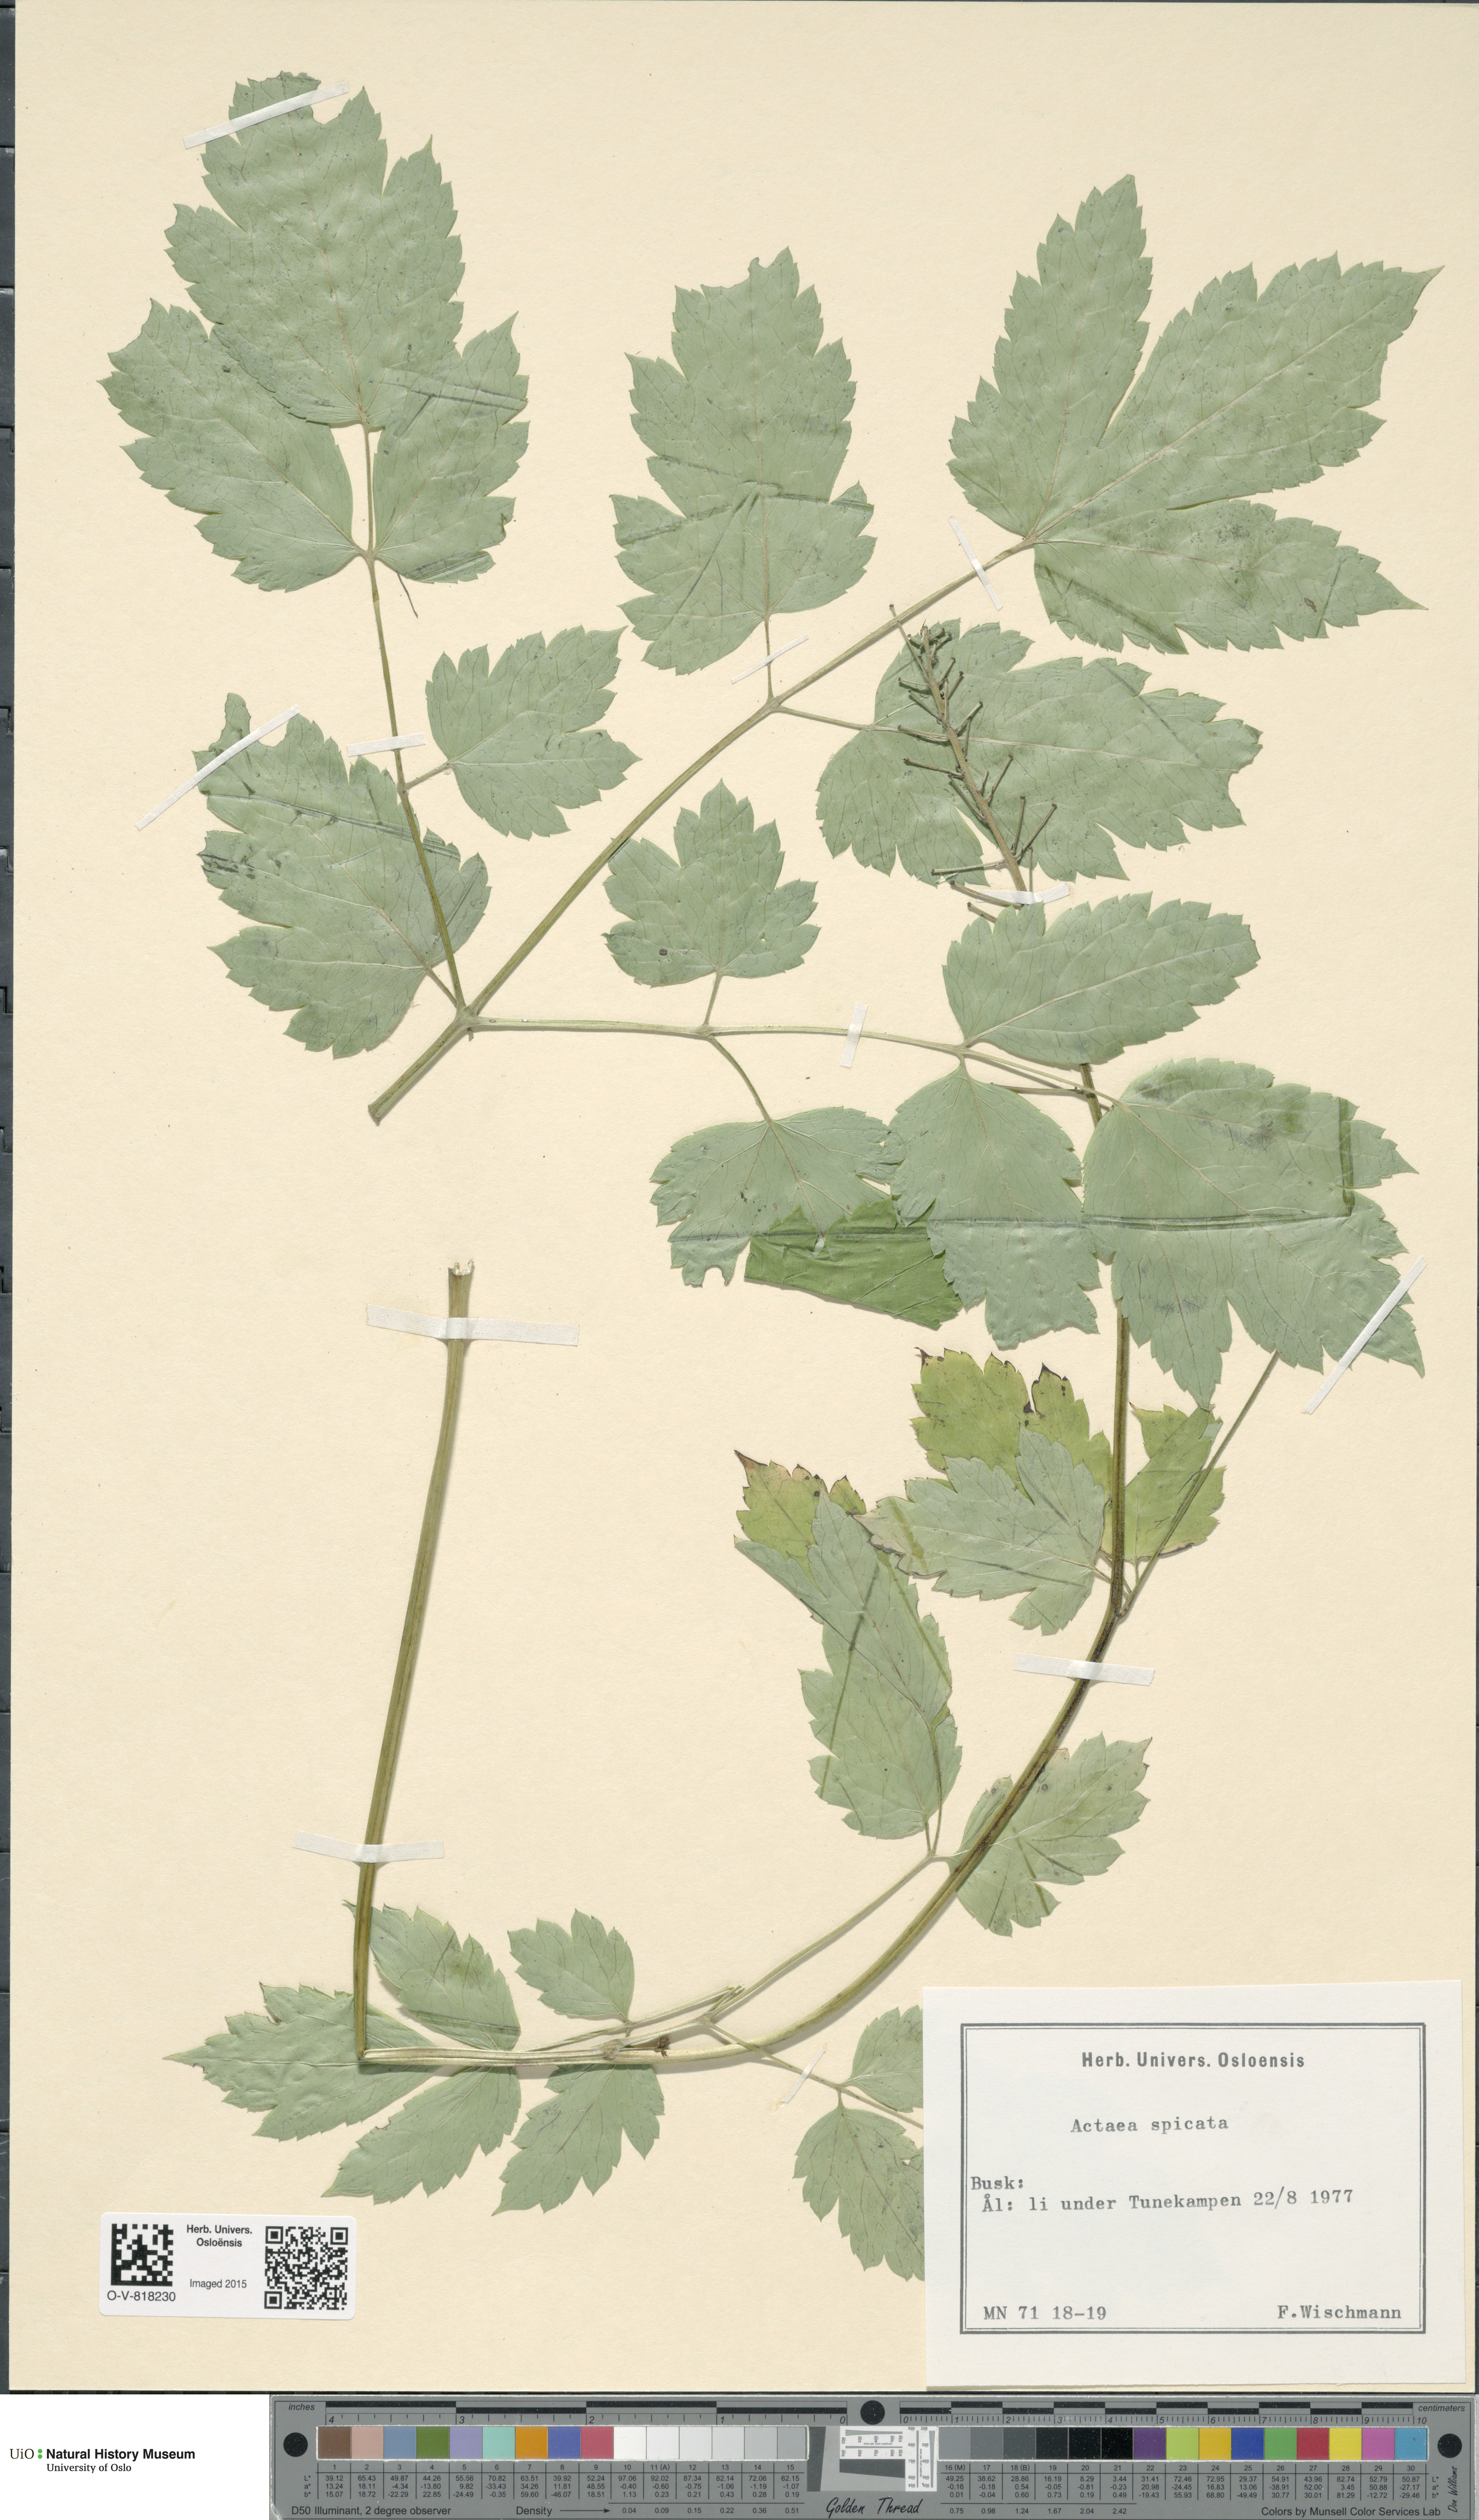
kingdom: Plantae
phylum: Tracheophyta
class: Magnoliopsida
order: Ranunculales
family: Ranunculaceae
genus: Actaea
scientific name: Actaea spicata
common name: Baneberry
